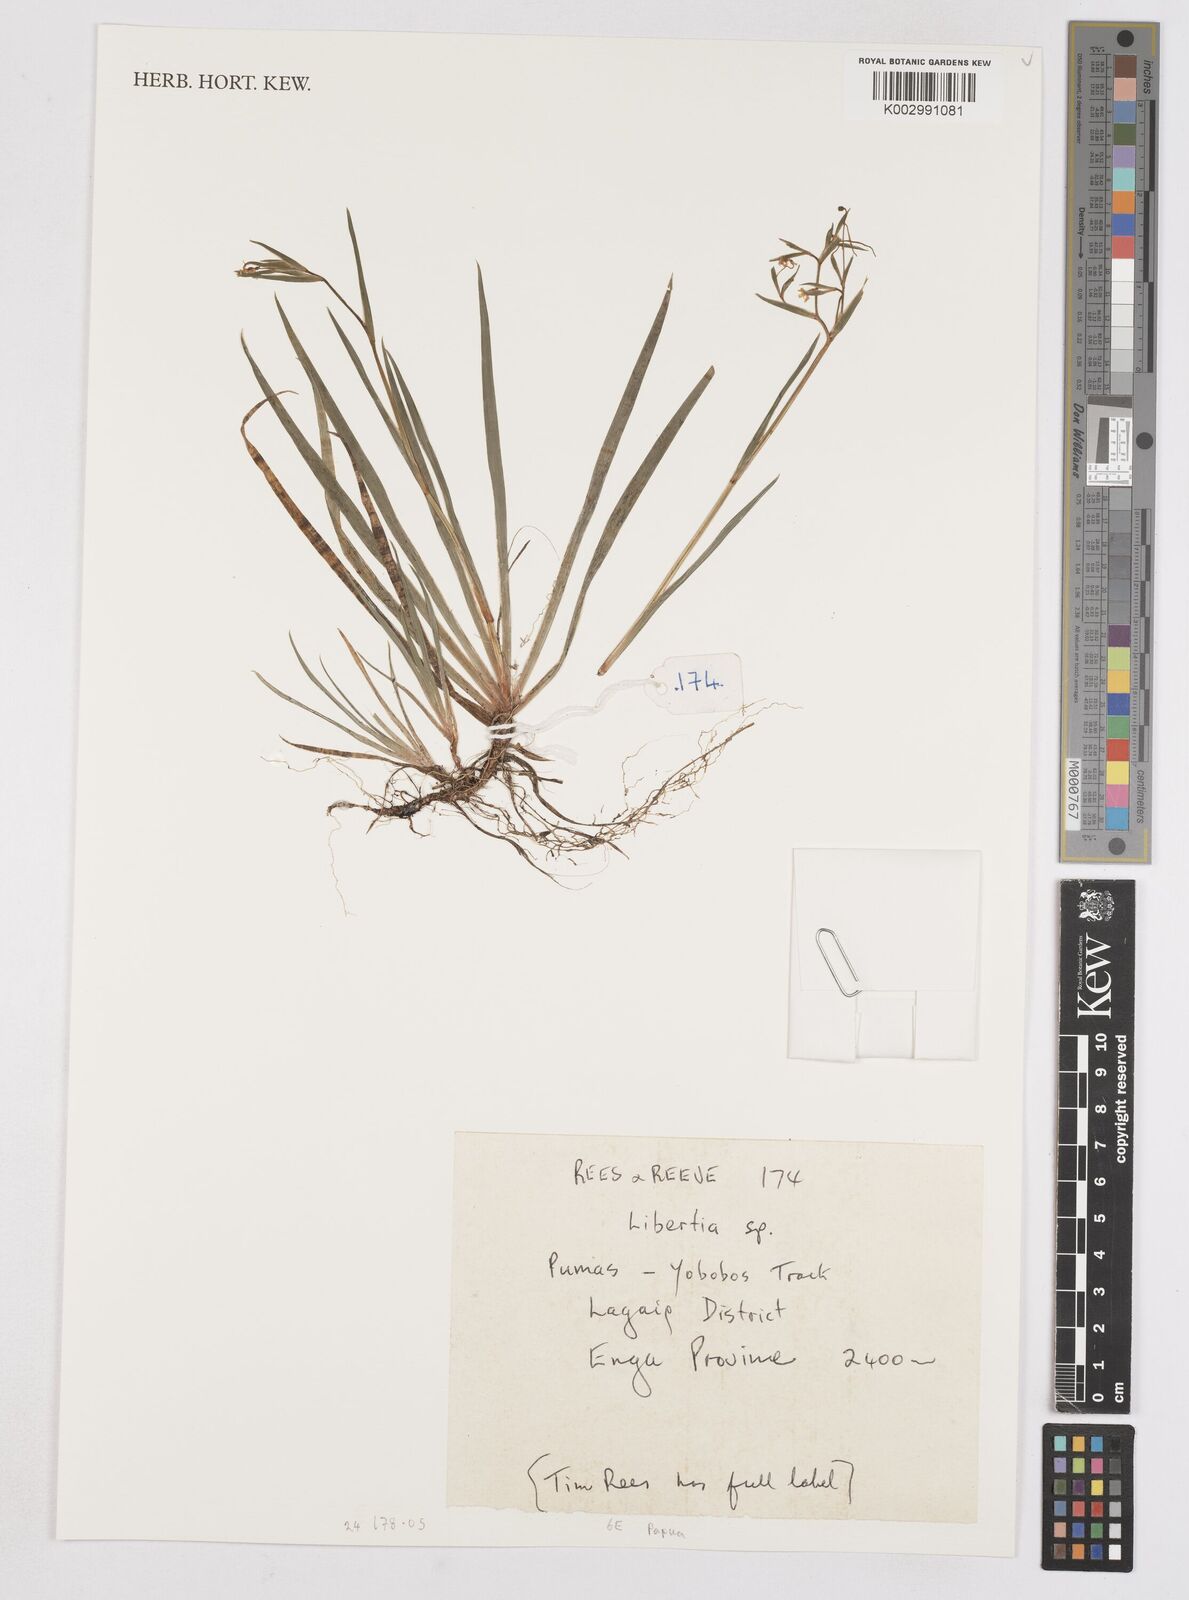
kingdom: Plantae
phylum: Tracheophyta
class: Liliopsida
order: Asparagales
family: Iridaceae
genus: Libertia
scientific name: Libertia
